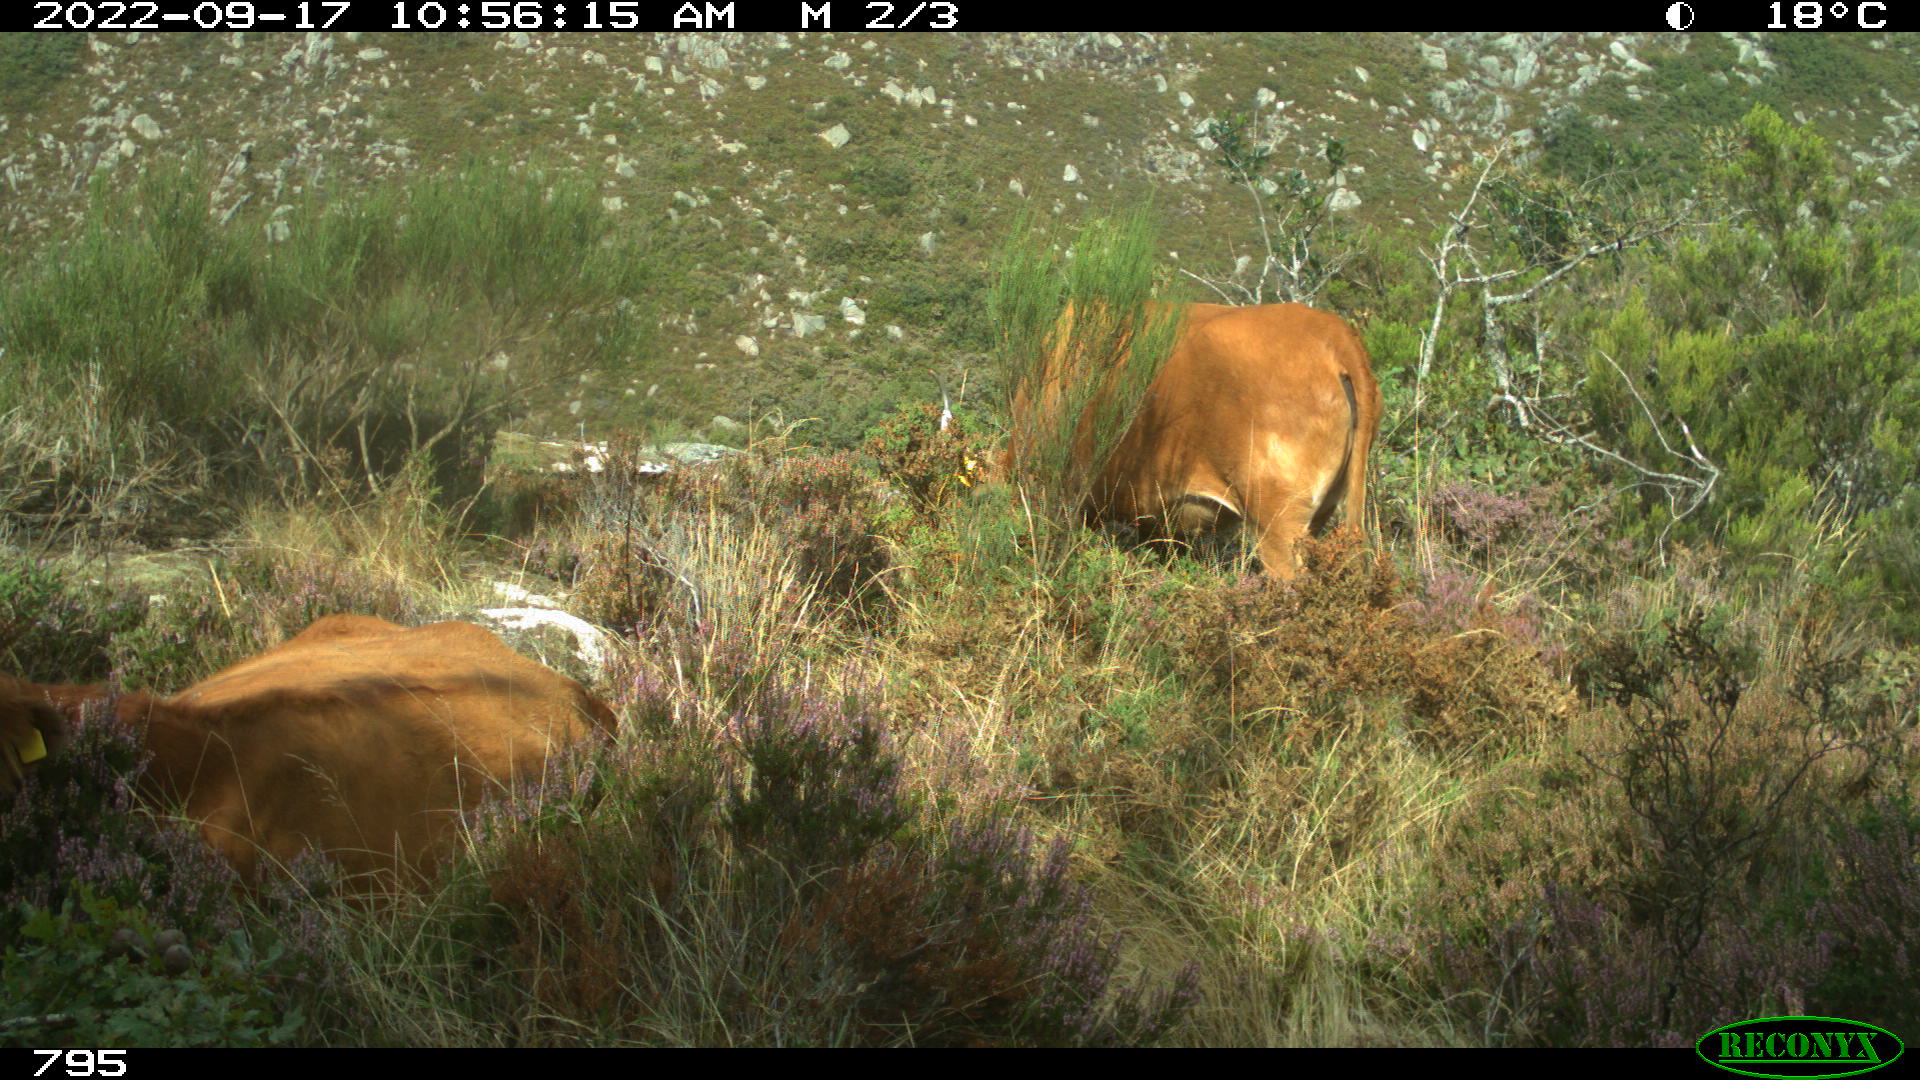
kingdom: Animalia
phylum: Chordata
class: Mammalia
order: Artiodactyla
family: Bovidae
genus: Bos
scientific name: Bos taurus
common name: Domesticated cattle
